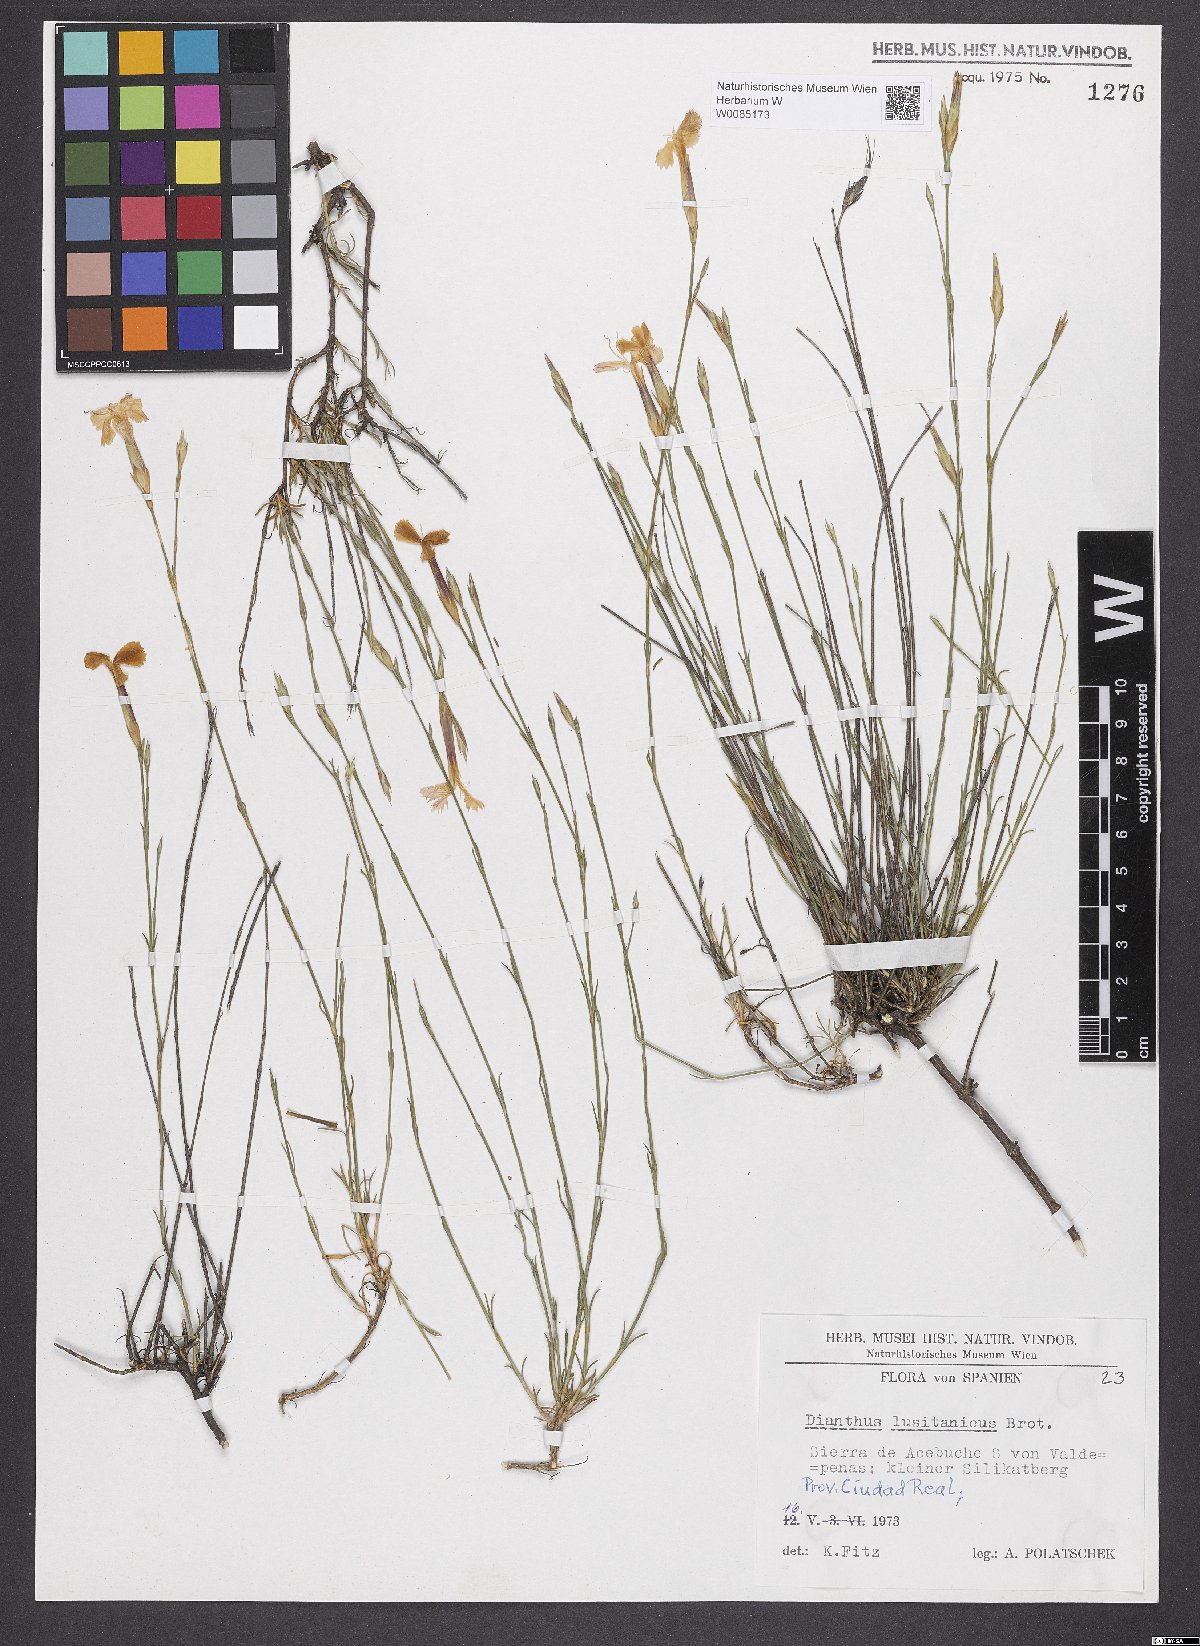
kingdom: Plantae
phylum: Tracheophyta
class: Magnoliopsida
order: Caryophyllales
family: Caryophyllaceae
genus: Dianthus
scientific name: Dianthus lusitanus
